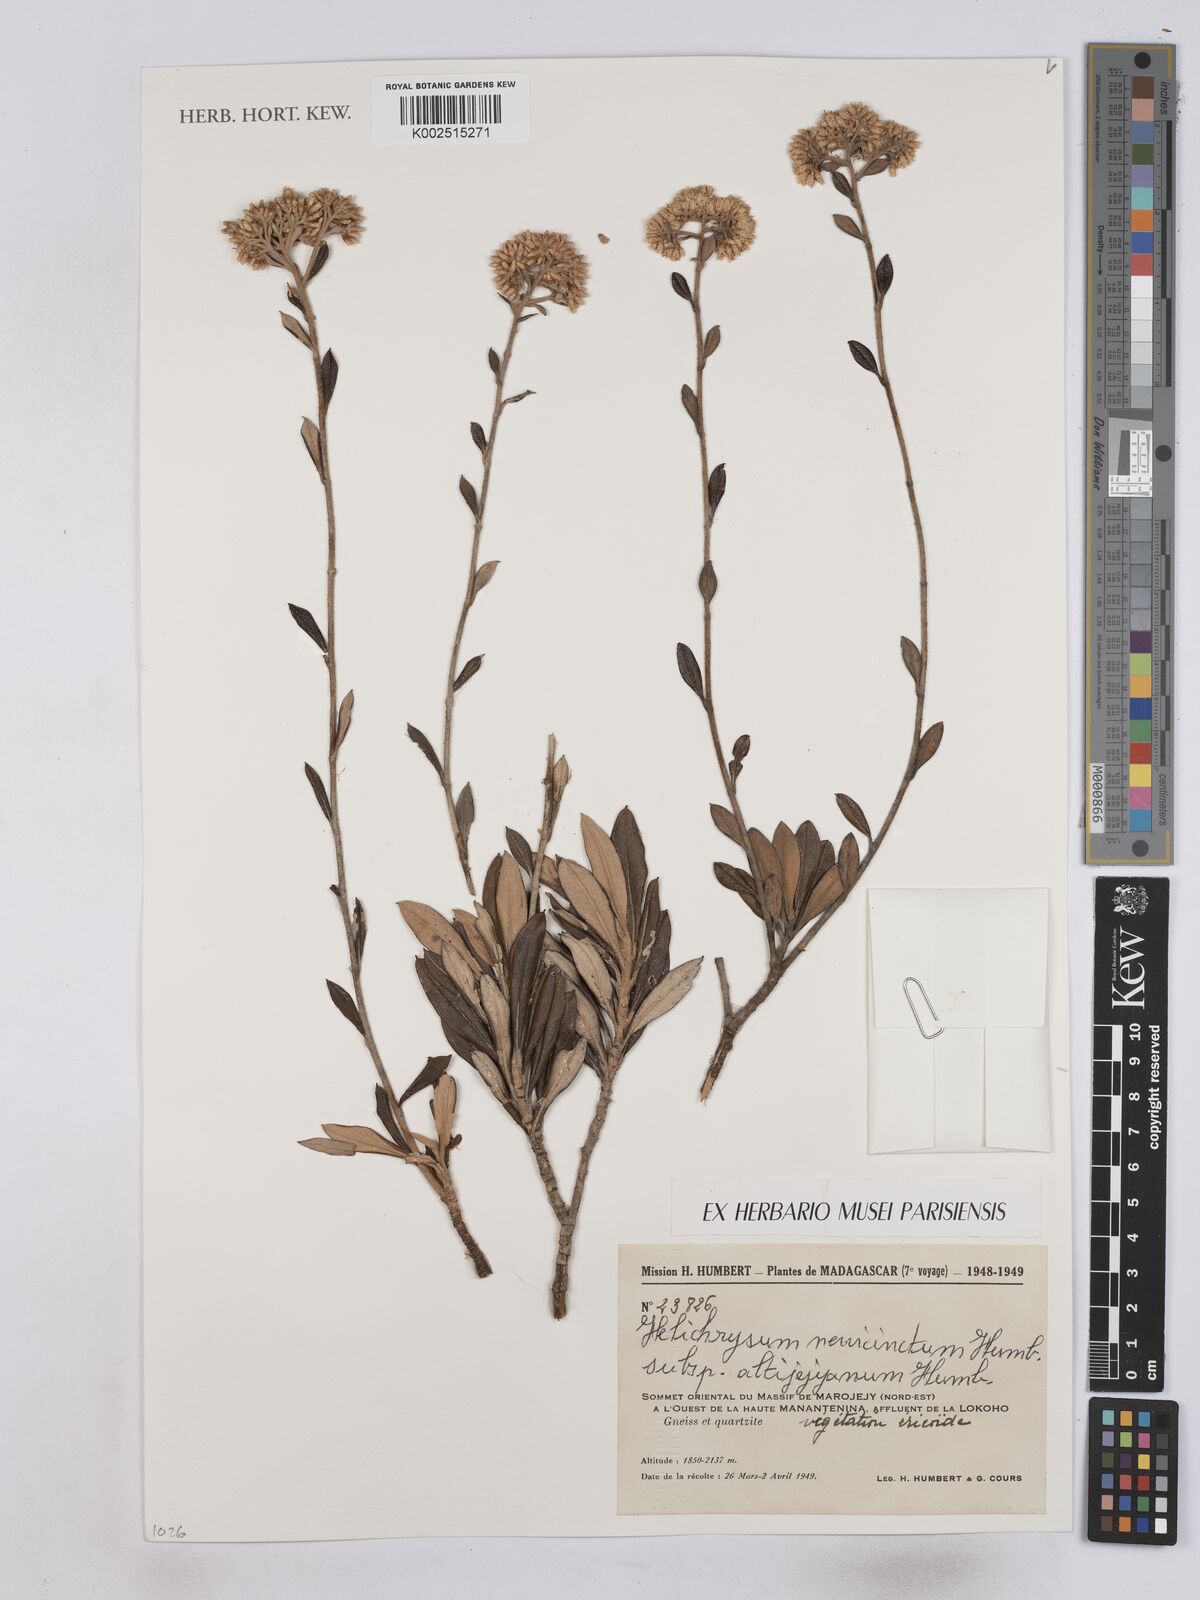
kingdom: Plantae
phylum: Tracheophyta
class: Magnoliopsida
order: Asterales
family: Asteraceae
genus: Helichrysum
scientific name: Helichrysum nervicinctum
